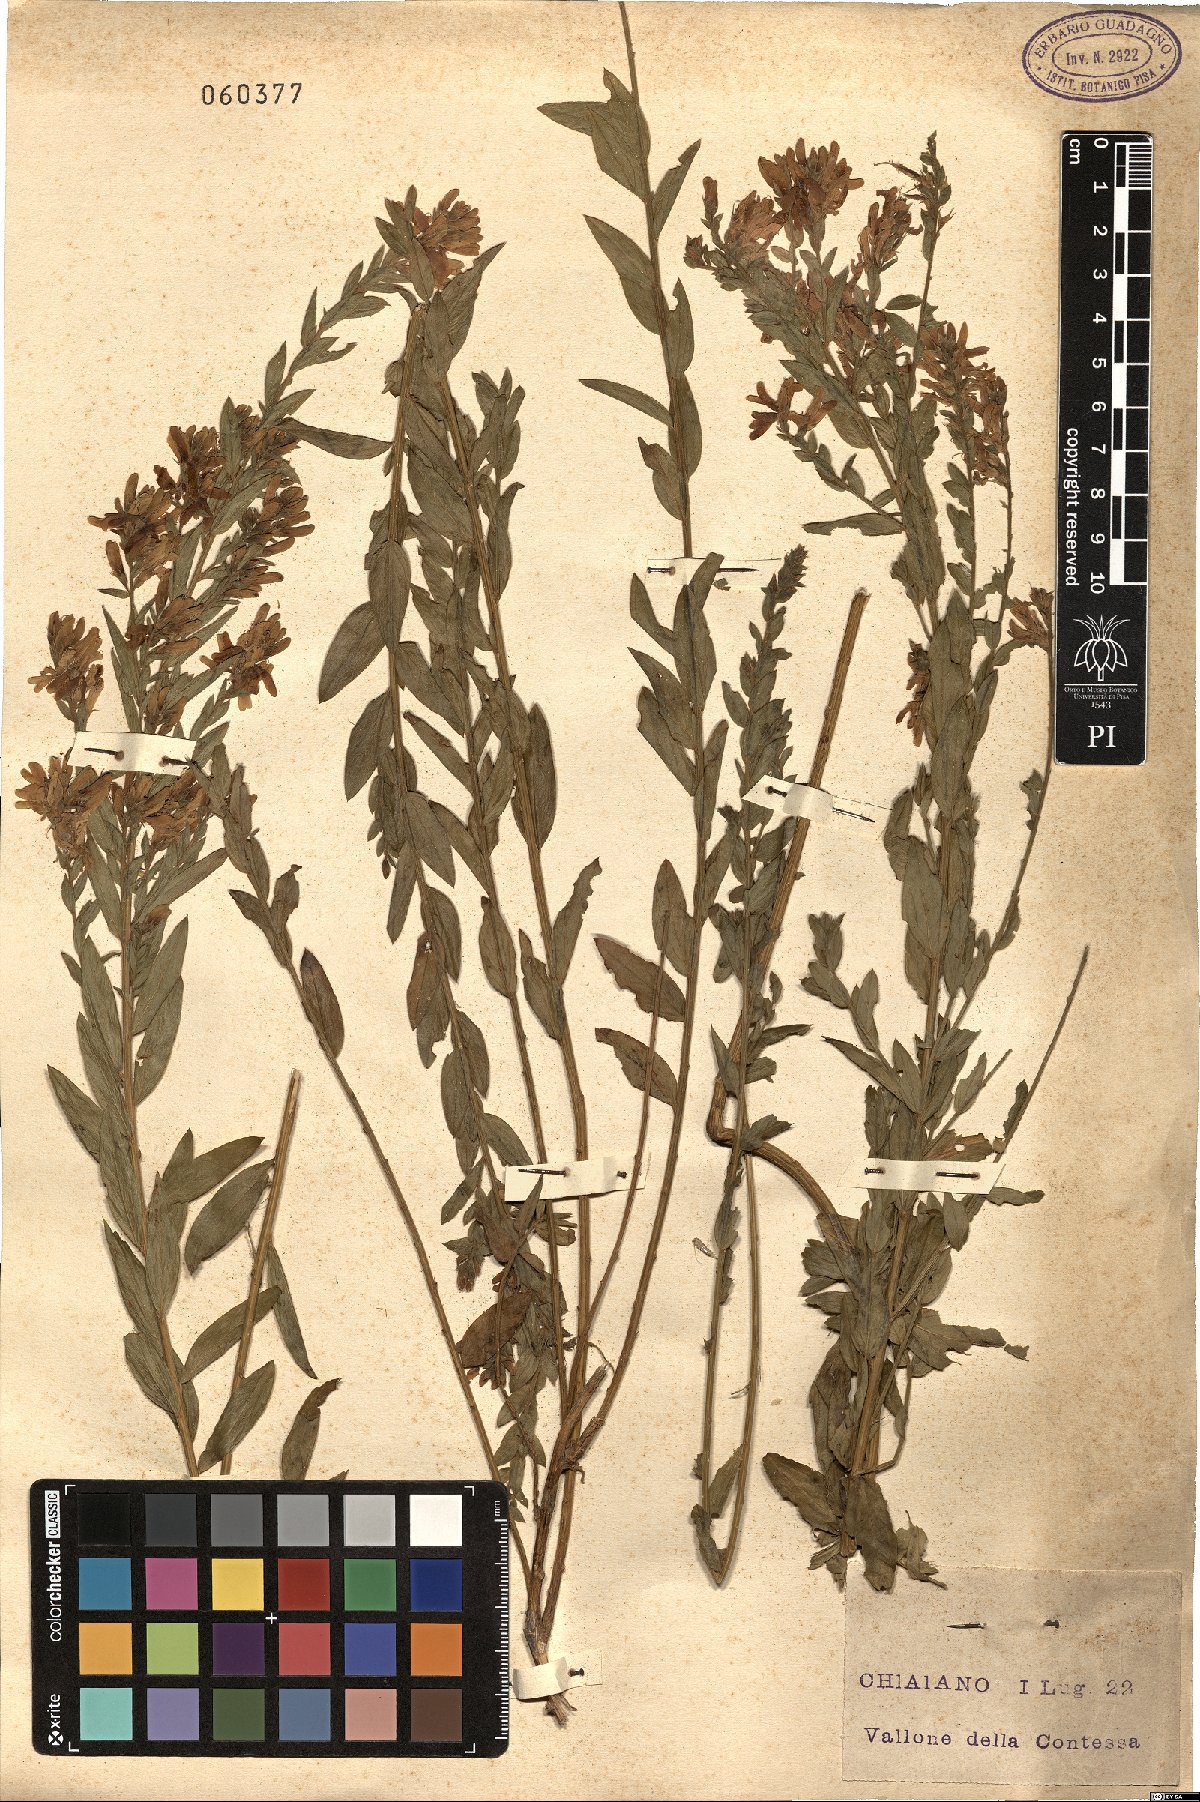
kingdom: Plantae
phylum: Tracheophyta
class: Magnoliopsida
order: Fabales
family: Fabaceae
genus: Genista
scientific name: Genista tinctoria
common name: Dyer's greenweed
